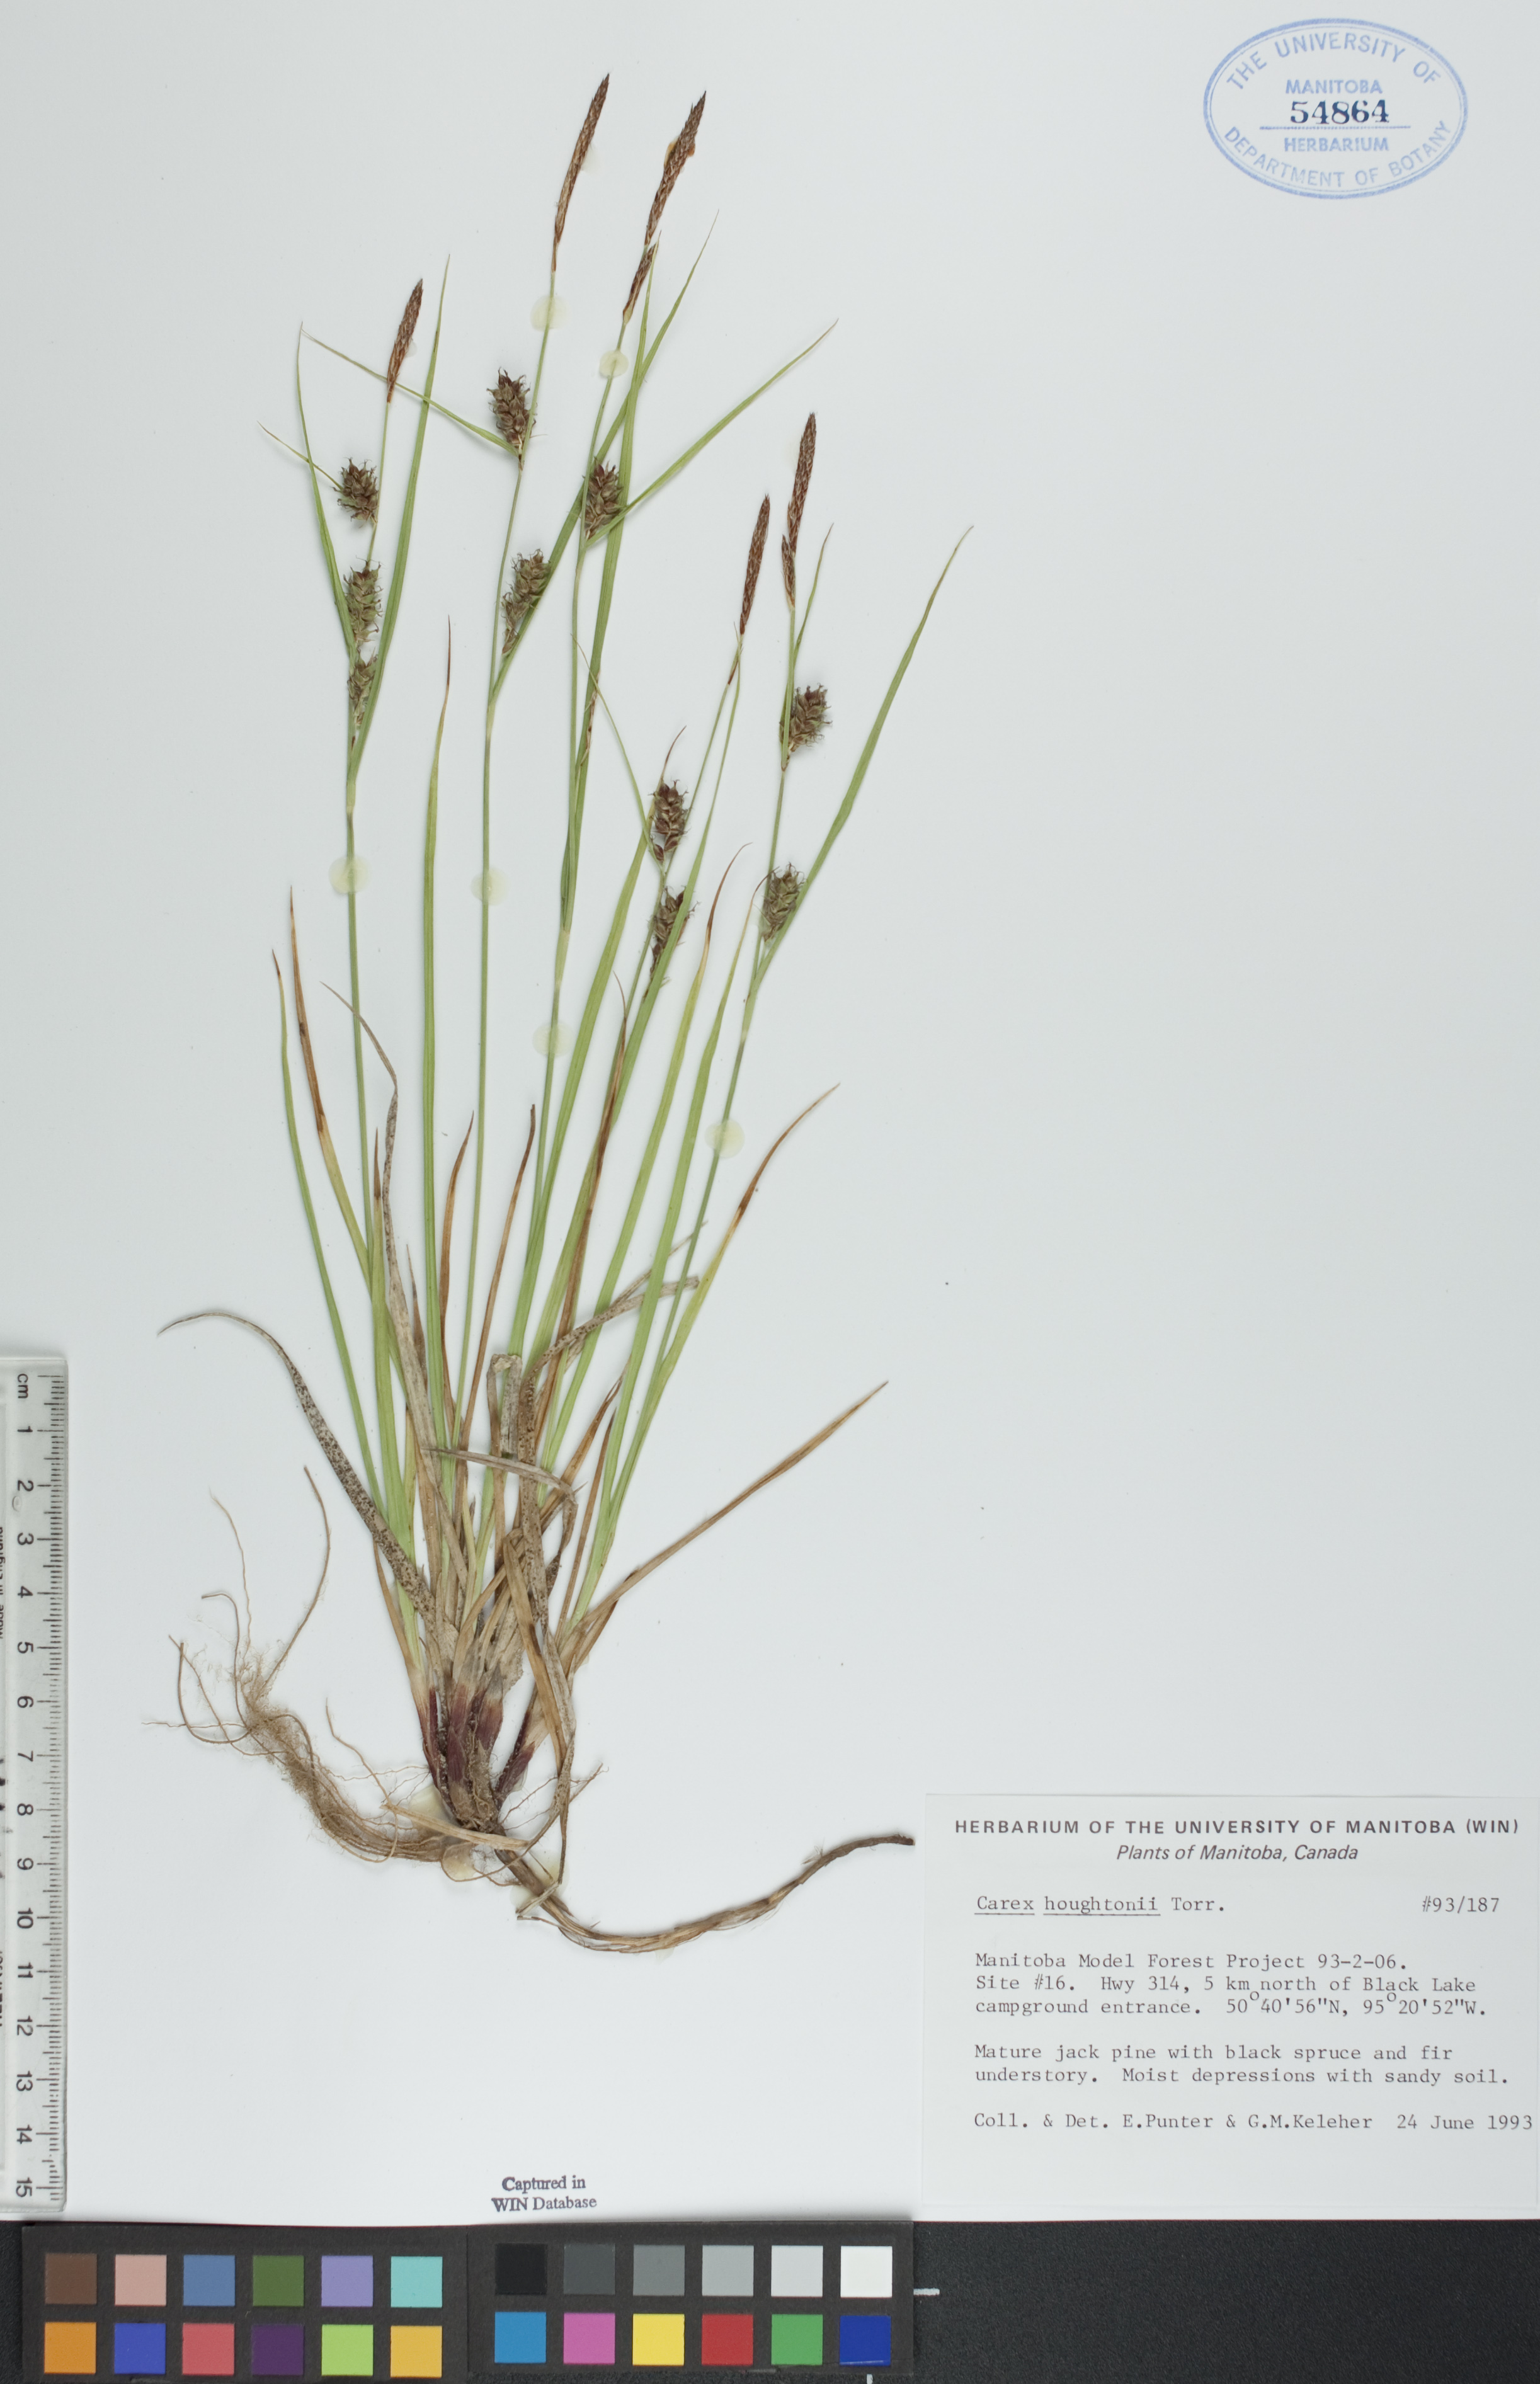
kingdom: Plantae
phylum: Tracheophyta
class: Liliopsida
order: Poales
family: Cyperaceae
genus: Carex
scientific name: Carex houghtoniana
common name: Houghton's sedge
